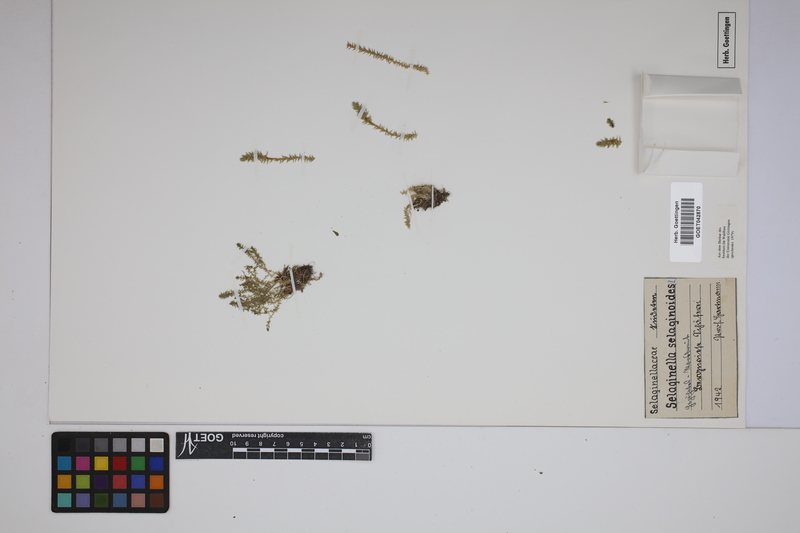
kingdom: Plantae
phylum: Tracheophyta
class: Lycopodiopsida
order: Selaginellales
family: Selaginellaceae
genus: Selaginella
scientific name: Selaginella selaginoides
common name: Prickly mountain-moss
